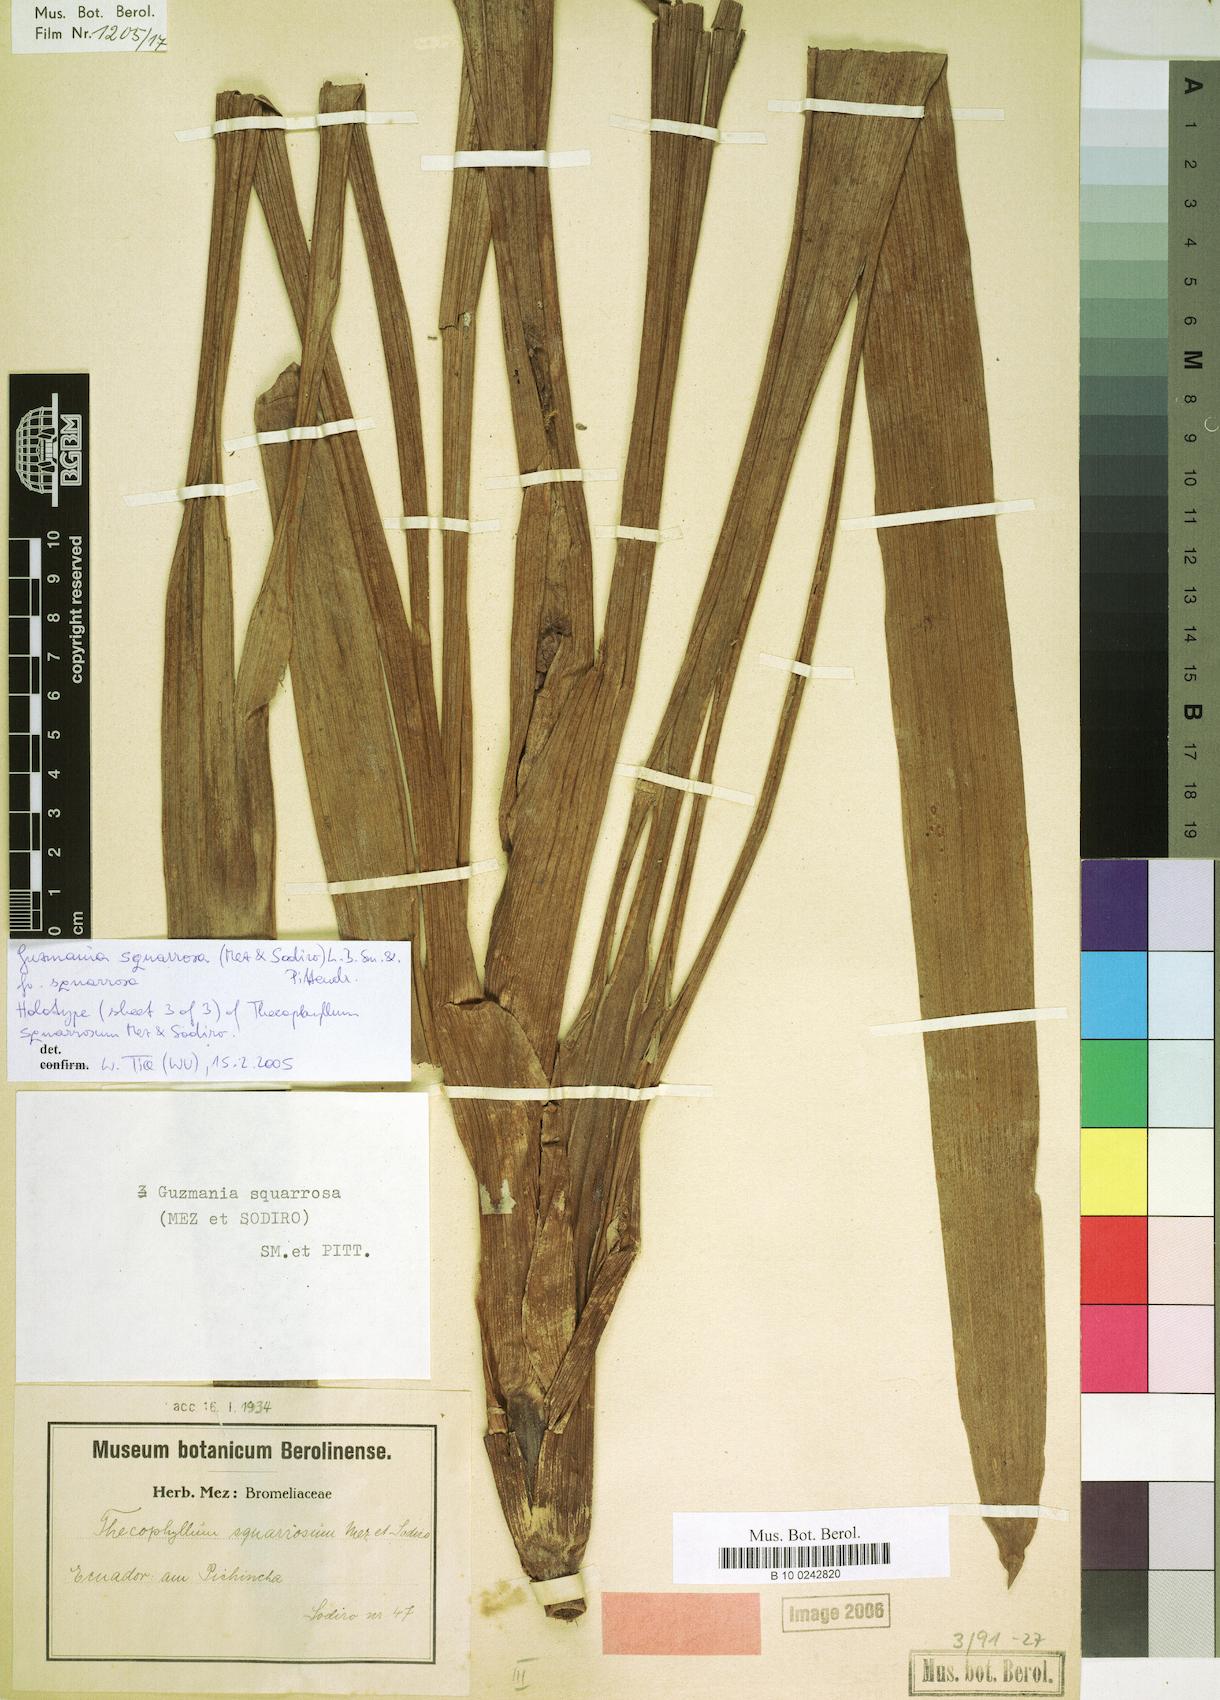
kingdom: Plantae
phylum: Tracheophyta
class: Liliopsida
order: Poales
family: Bromeliaceae
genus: Guzmania
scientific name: Guzmania squarrosa
